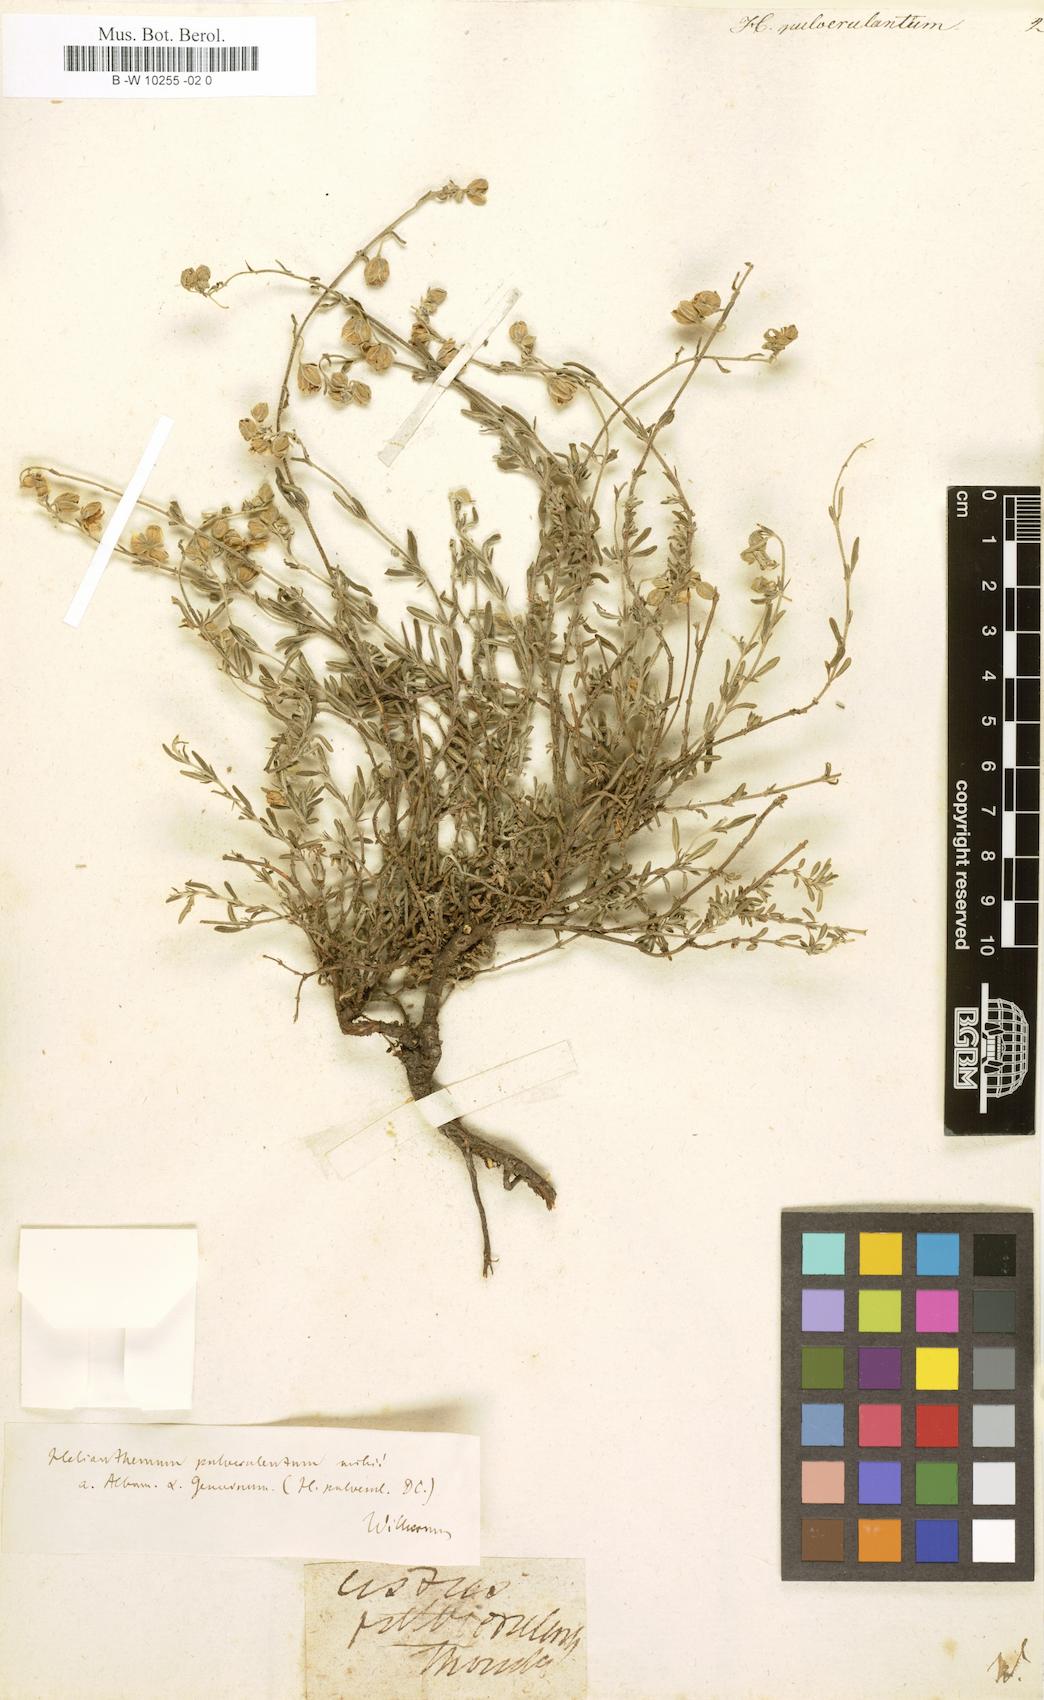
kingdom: Plantae
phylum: Tracheophyta
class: Magnoliopsida
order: Malvales
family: Cistaceae
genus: Helianthemum
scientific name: Helianthemum
